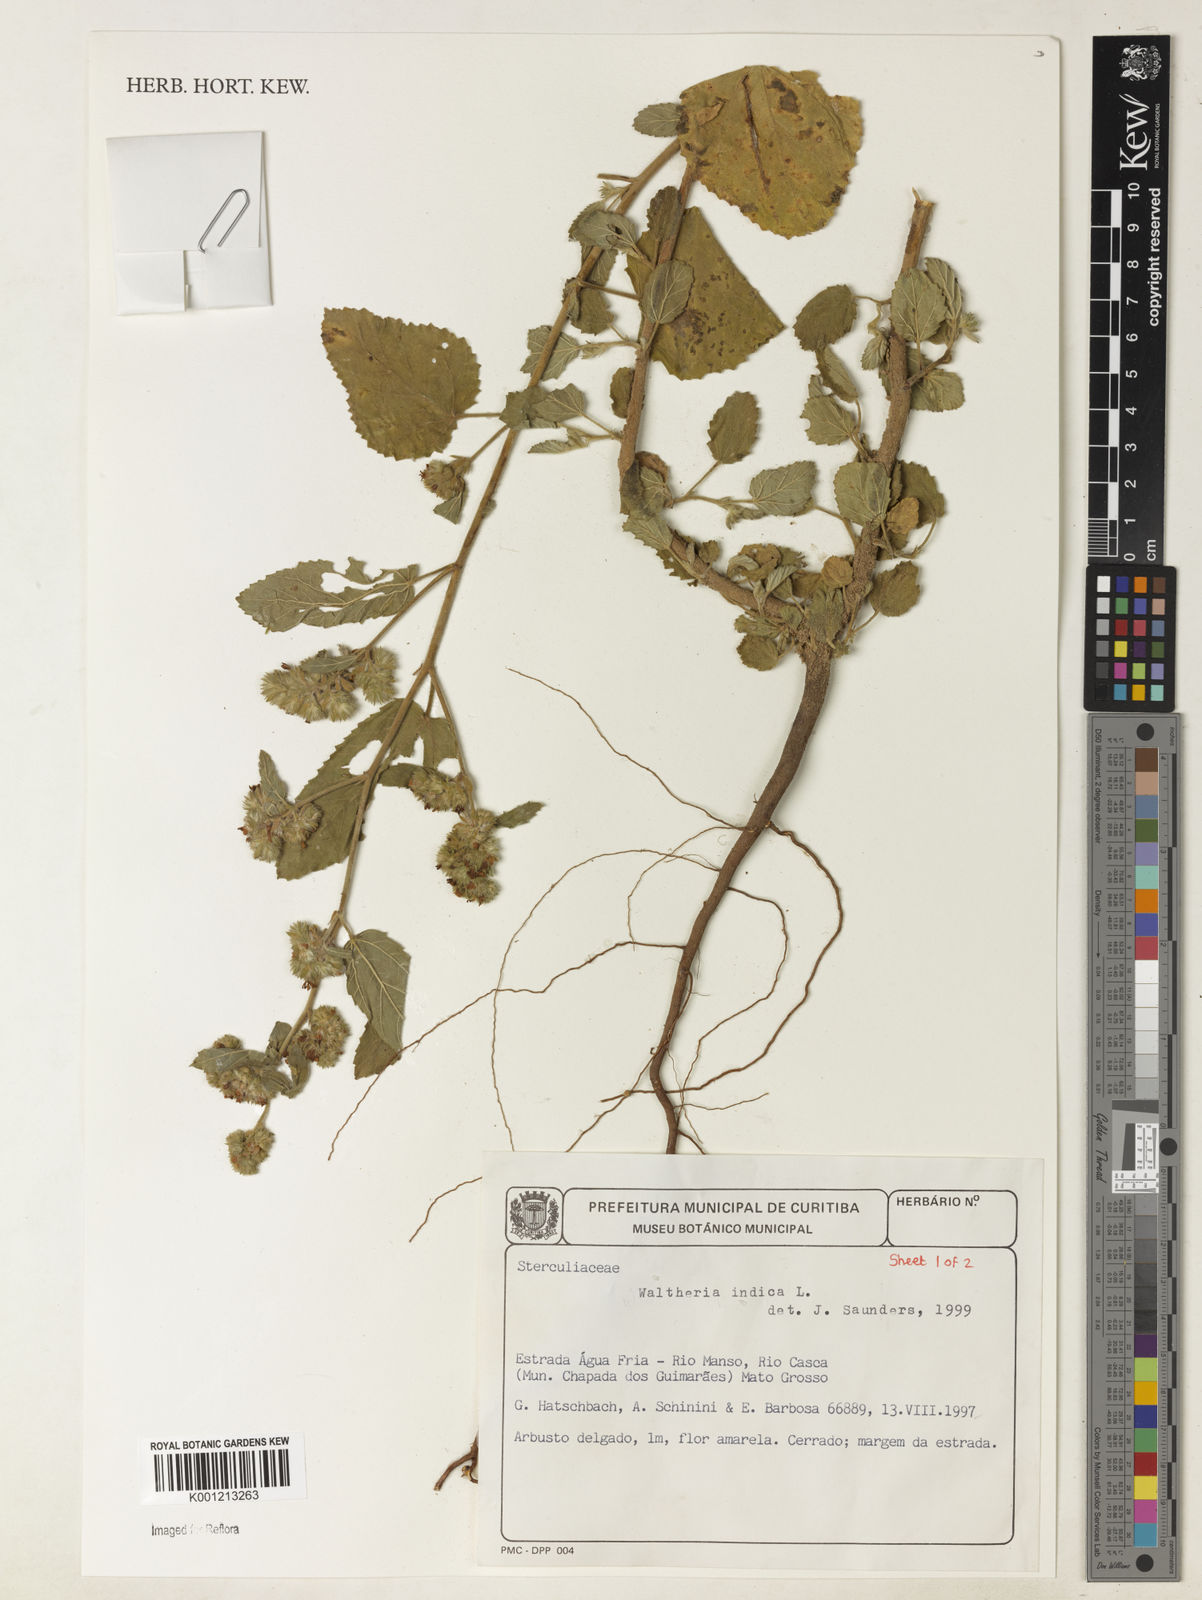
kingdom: Plantae
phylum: Tracheophyta
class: Magnoliopsida
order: Malvales
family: Malvaceae
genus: Waltheria
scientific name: Waltheria indica
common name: Leather-coat
